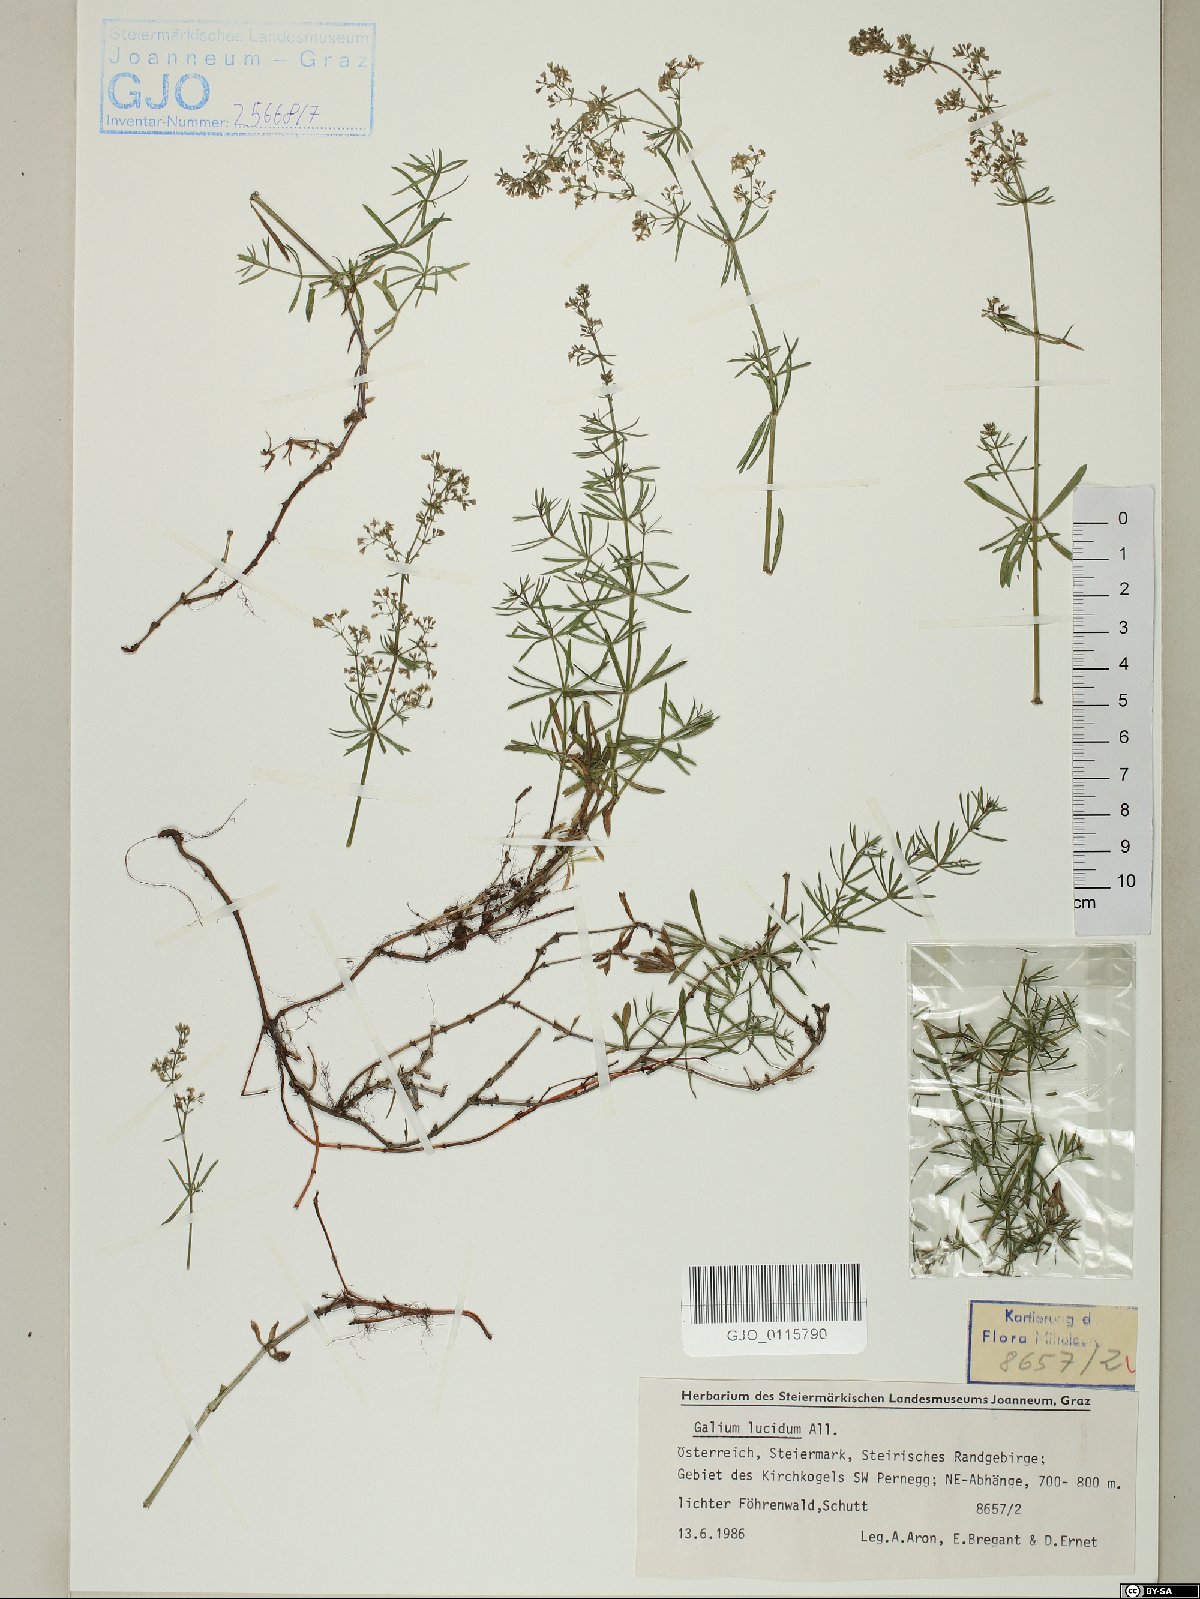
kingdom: Plantae
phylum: Tracheophyta
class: Magnoliopsida
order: Gentianales
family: Rubiaceae
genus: Galium
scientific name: Galium lucidum
